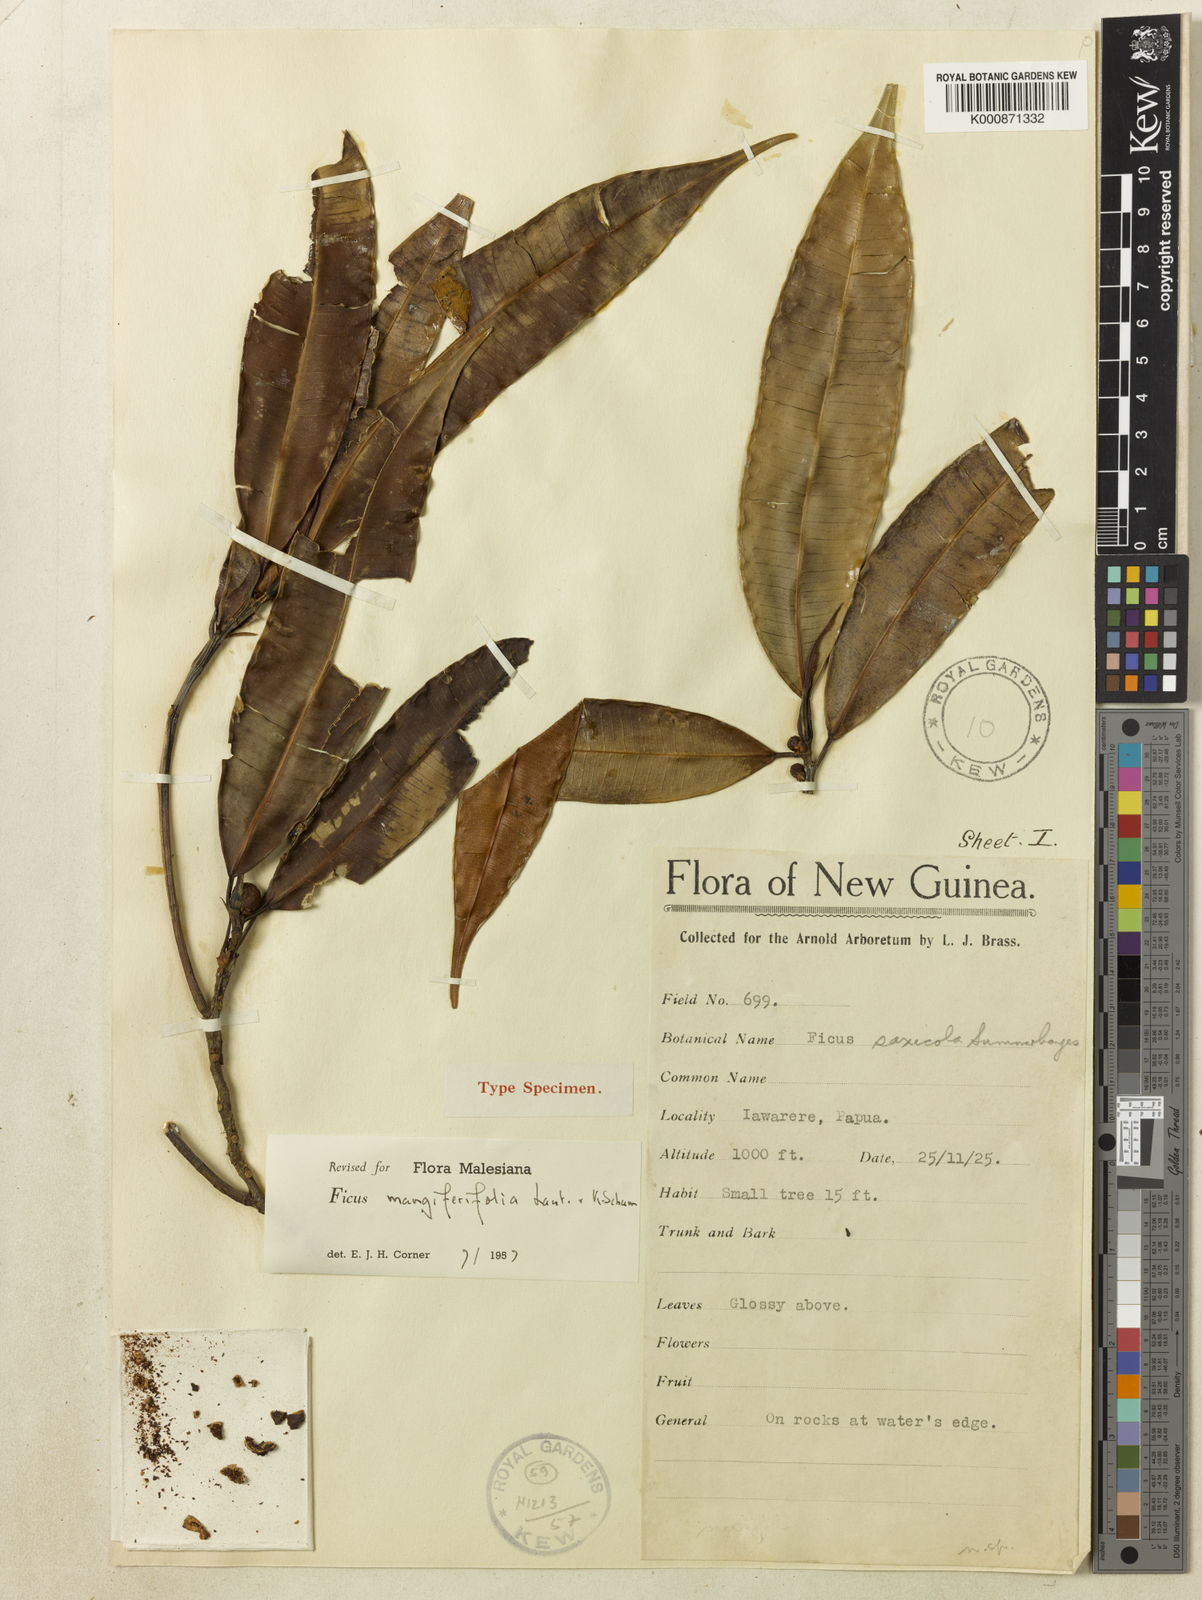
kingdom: Plantae
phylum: Tracheophyta
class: Magnoliopsida
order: Rosales
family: Moraceae
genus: Ficus
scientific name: Ficus subtrinervia
